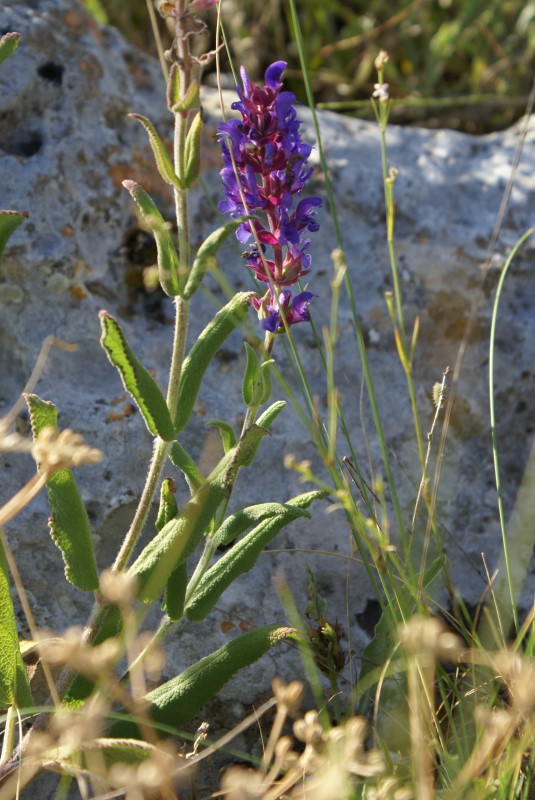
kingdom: Plantae
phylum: Tracheophyta
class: Magnoliopsida
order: Lamiales
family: Lamiaceae
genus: Salvia
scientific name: Salvia
